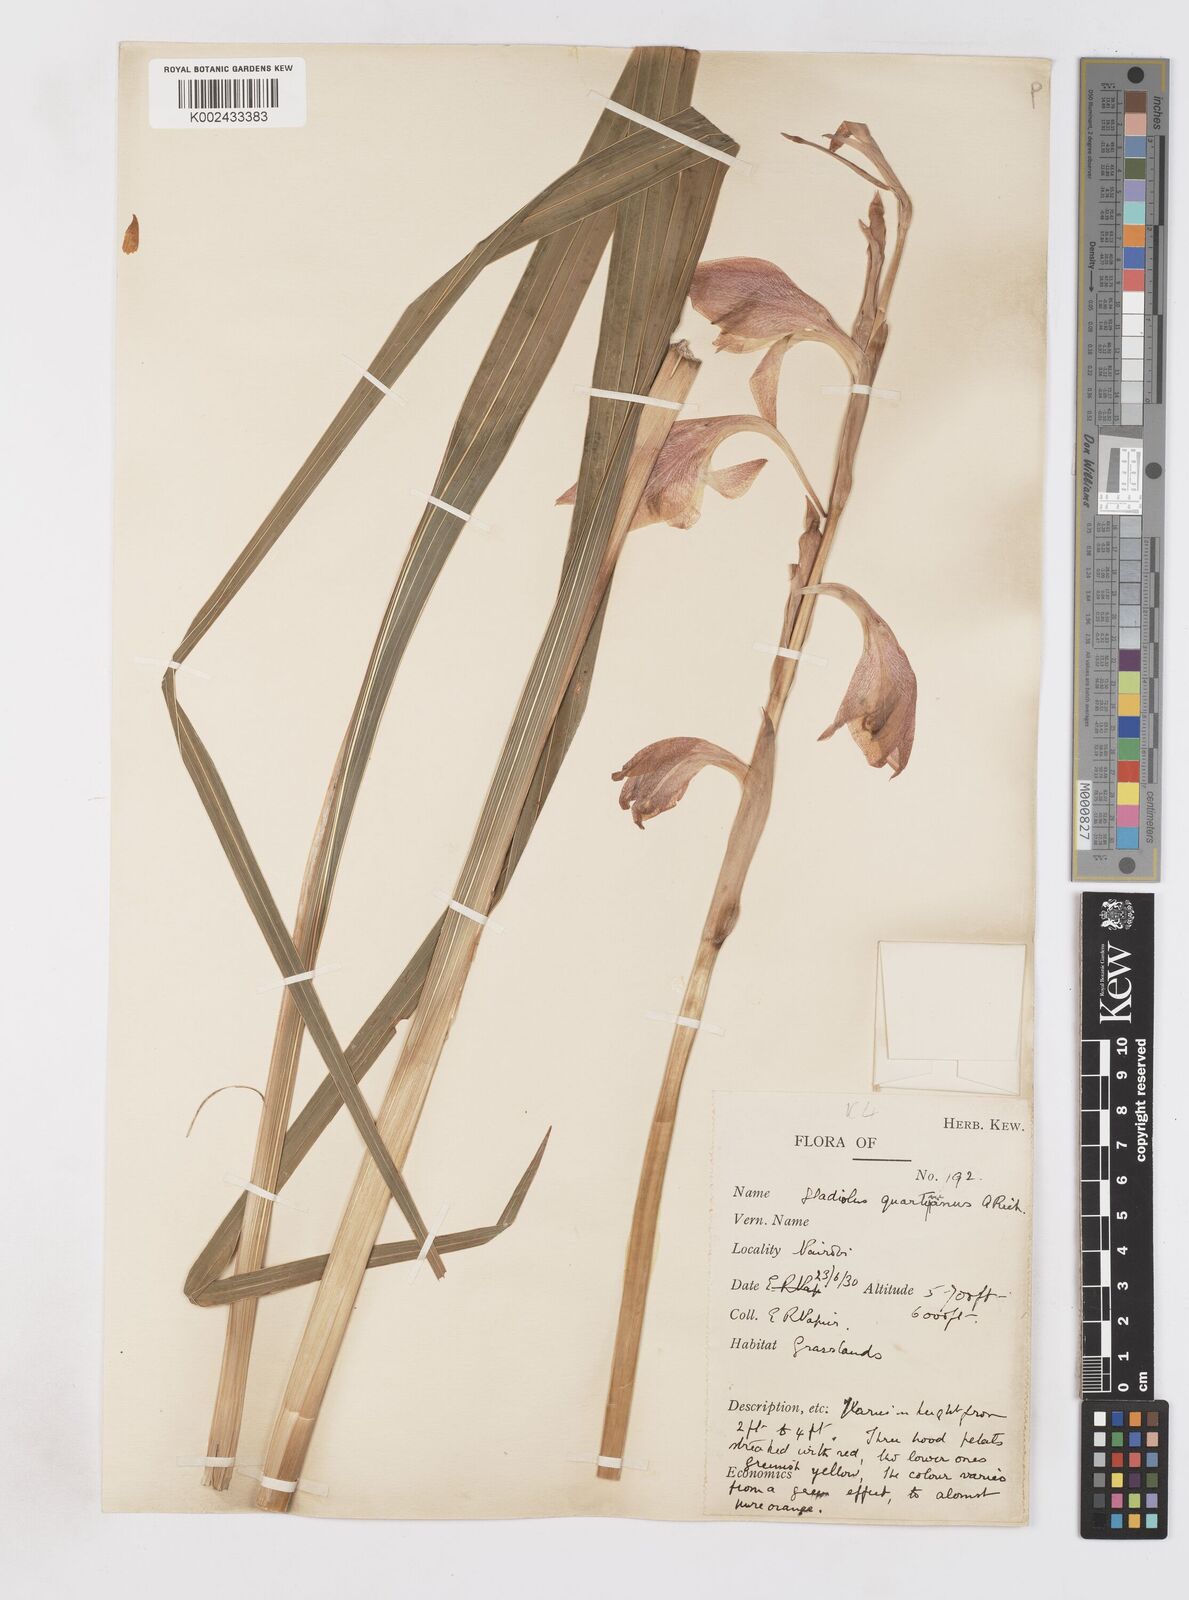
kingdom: Plantae
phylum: Tracheophyta
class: Liliopsida
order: Asparagales
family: Iridaceae
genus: Gladiolus
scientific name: Gladiolus dalenii
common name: Cornflag
